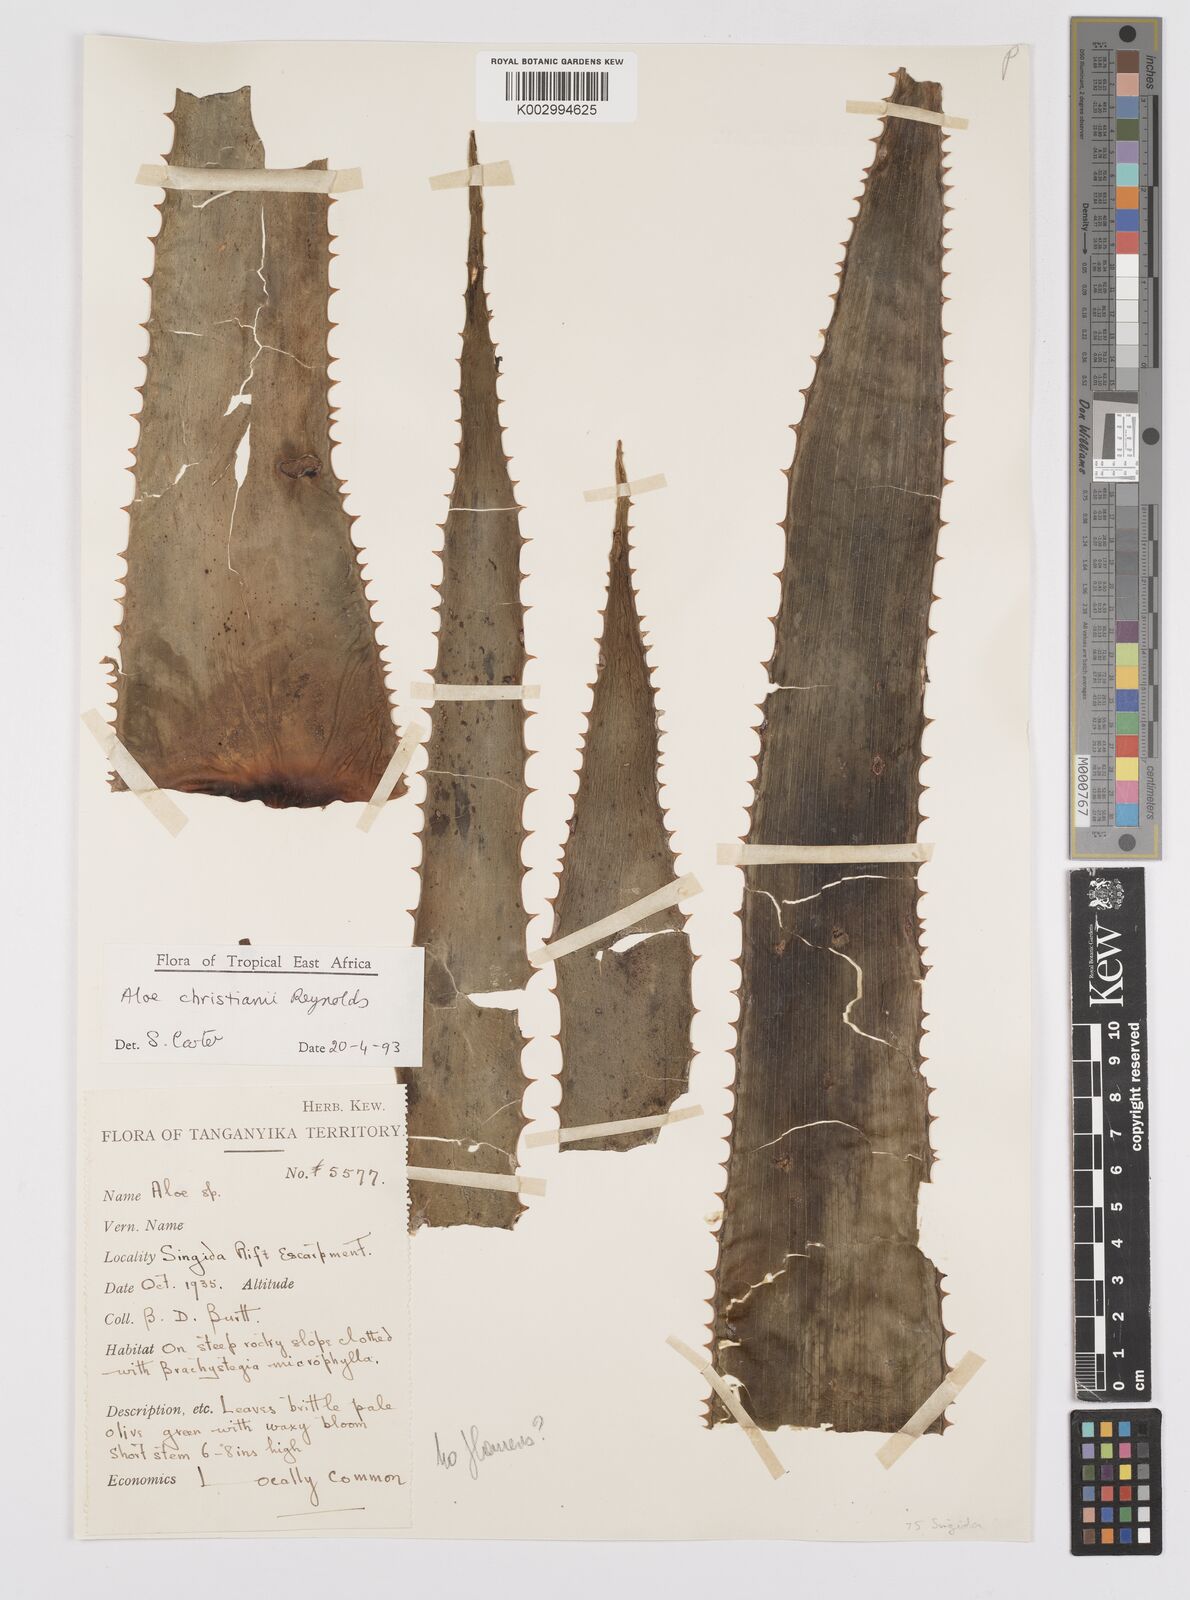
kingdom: Plantae
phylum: Tracheophyta
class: Liliopsida
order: Asparagales
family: Asphodelaceae
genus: Aloe
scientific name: Aloe christianii
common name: Basil christian's aloe
